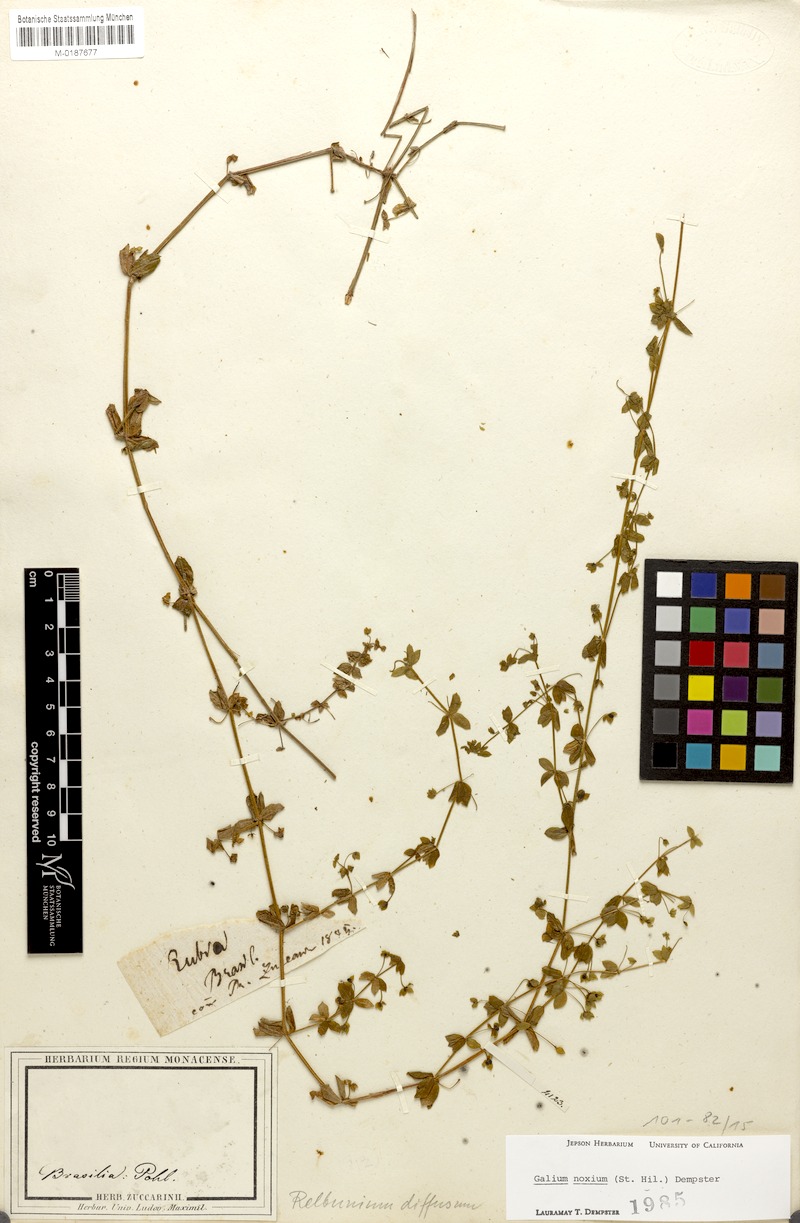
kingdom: Plantae
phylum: Tracheophyta
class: Magnoliopsida
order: Gentianales
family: Rubiaceae
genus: Galium
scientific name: Galium noxium
